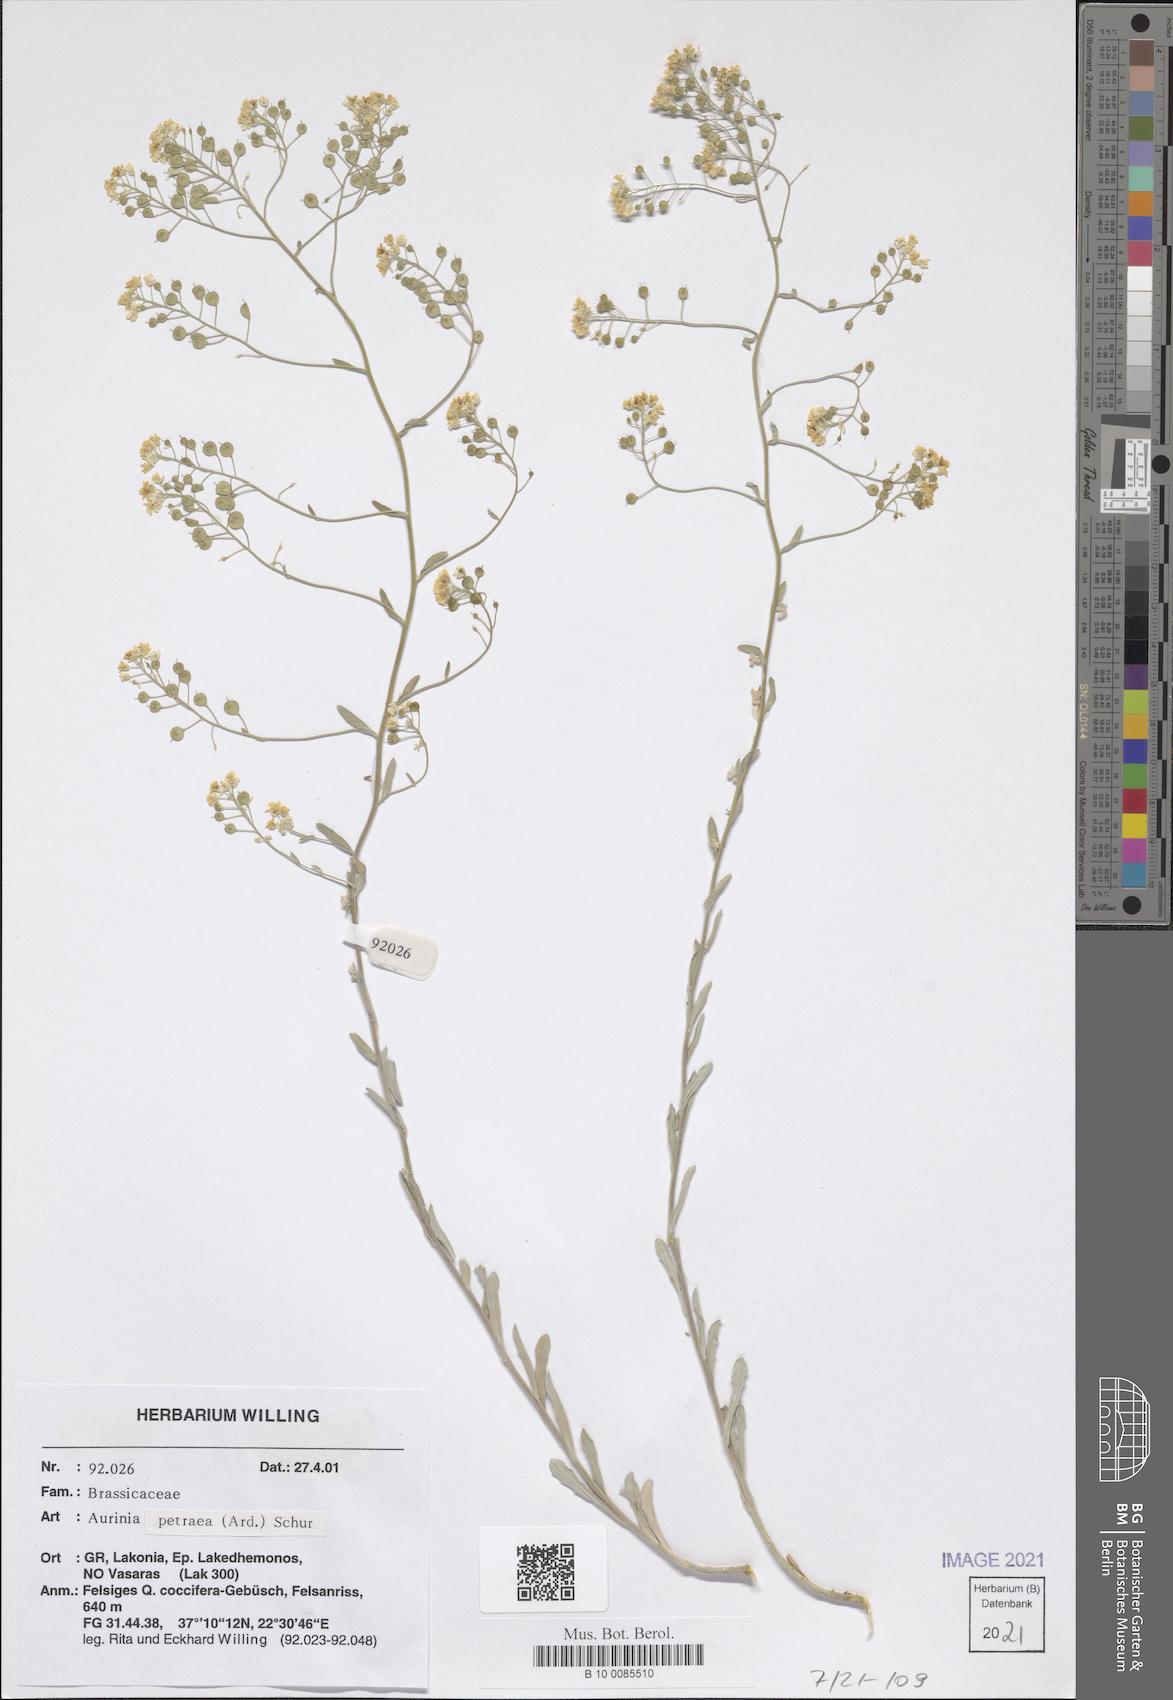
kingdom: Plantae
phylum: Tracheophyta
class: Magnoliopsida
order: Brassicales
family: Brassicaceae
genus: Aurinia
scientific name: Aurinia petraea
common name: Goldentuft
